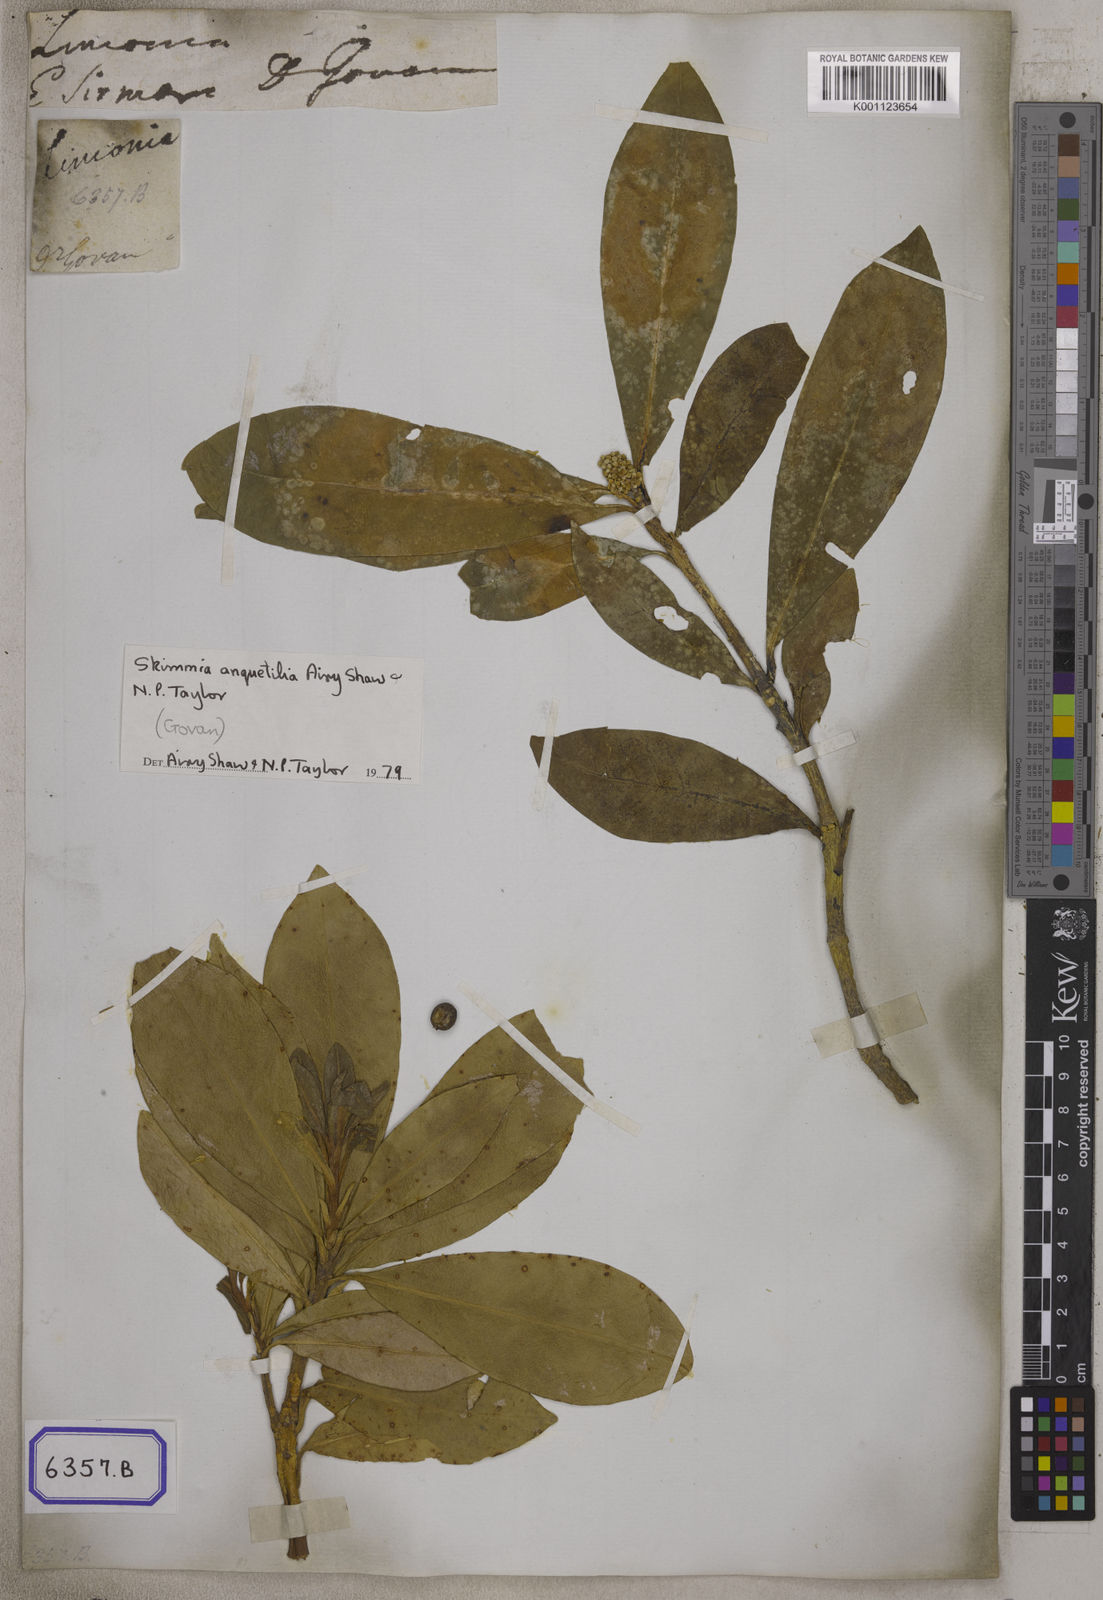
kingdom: Plantae
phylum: Tracheophyta
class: Magnoliopsida
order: Sapindales
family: Rutaceae
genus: Skimmia
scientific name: Skimmia laureola
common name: Ner
